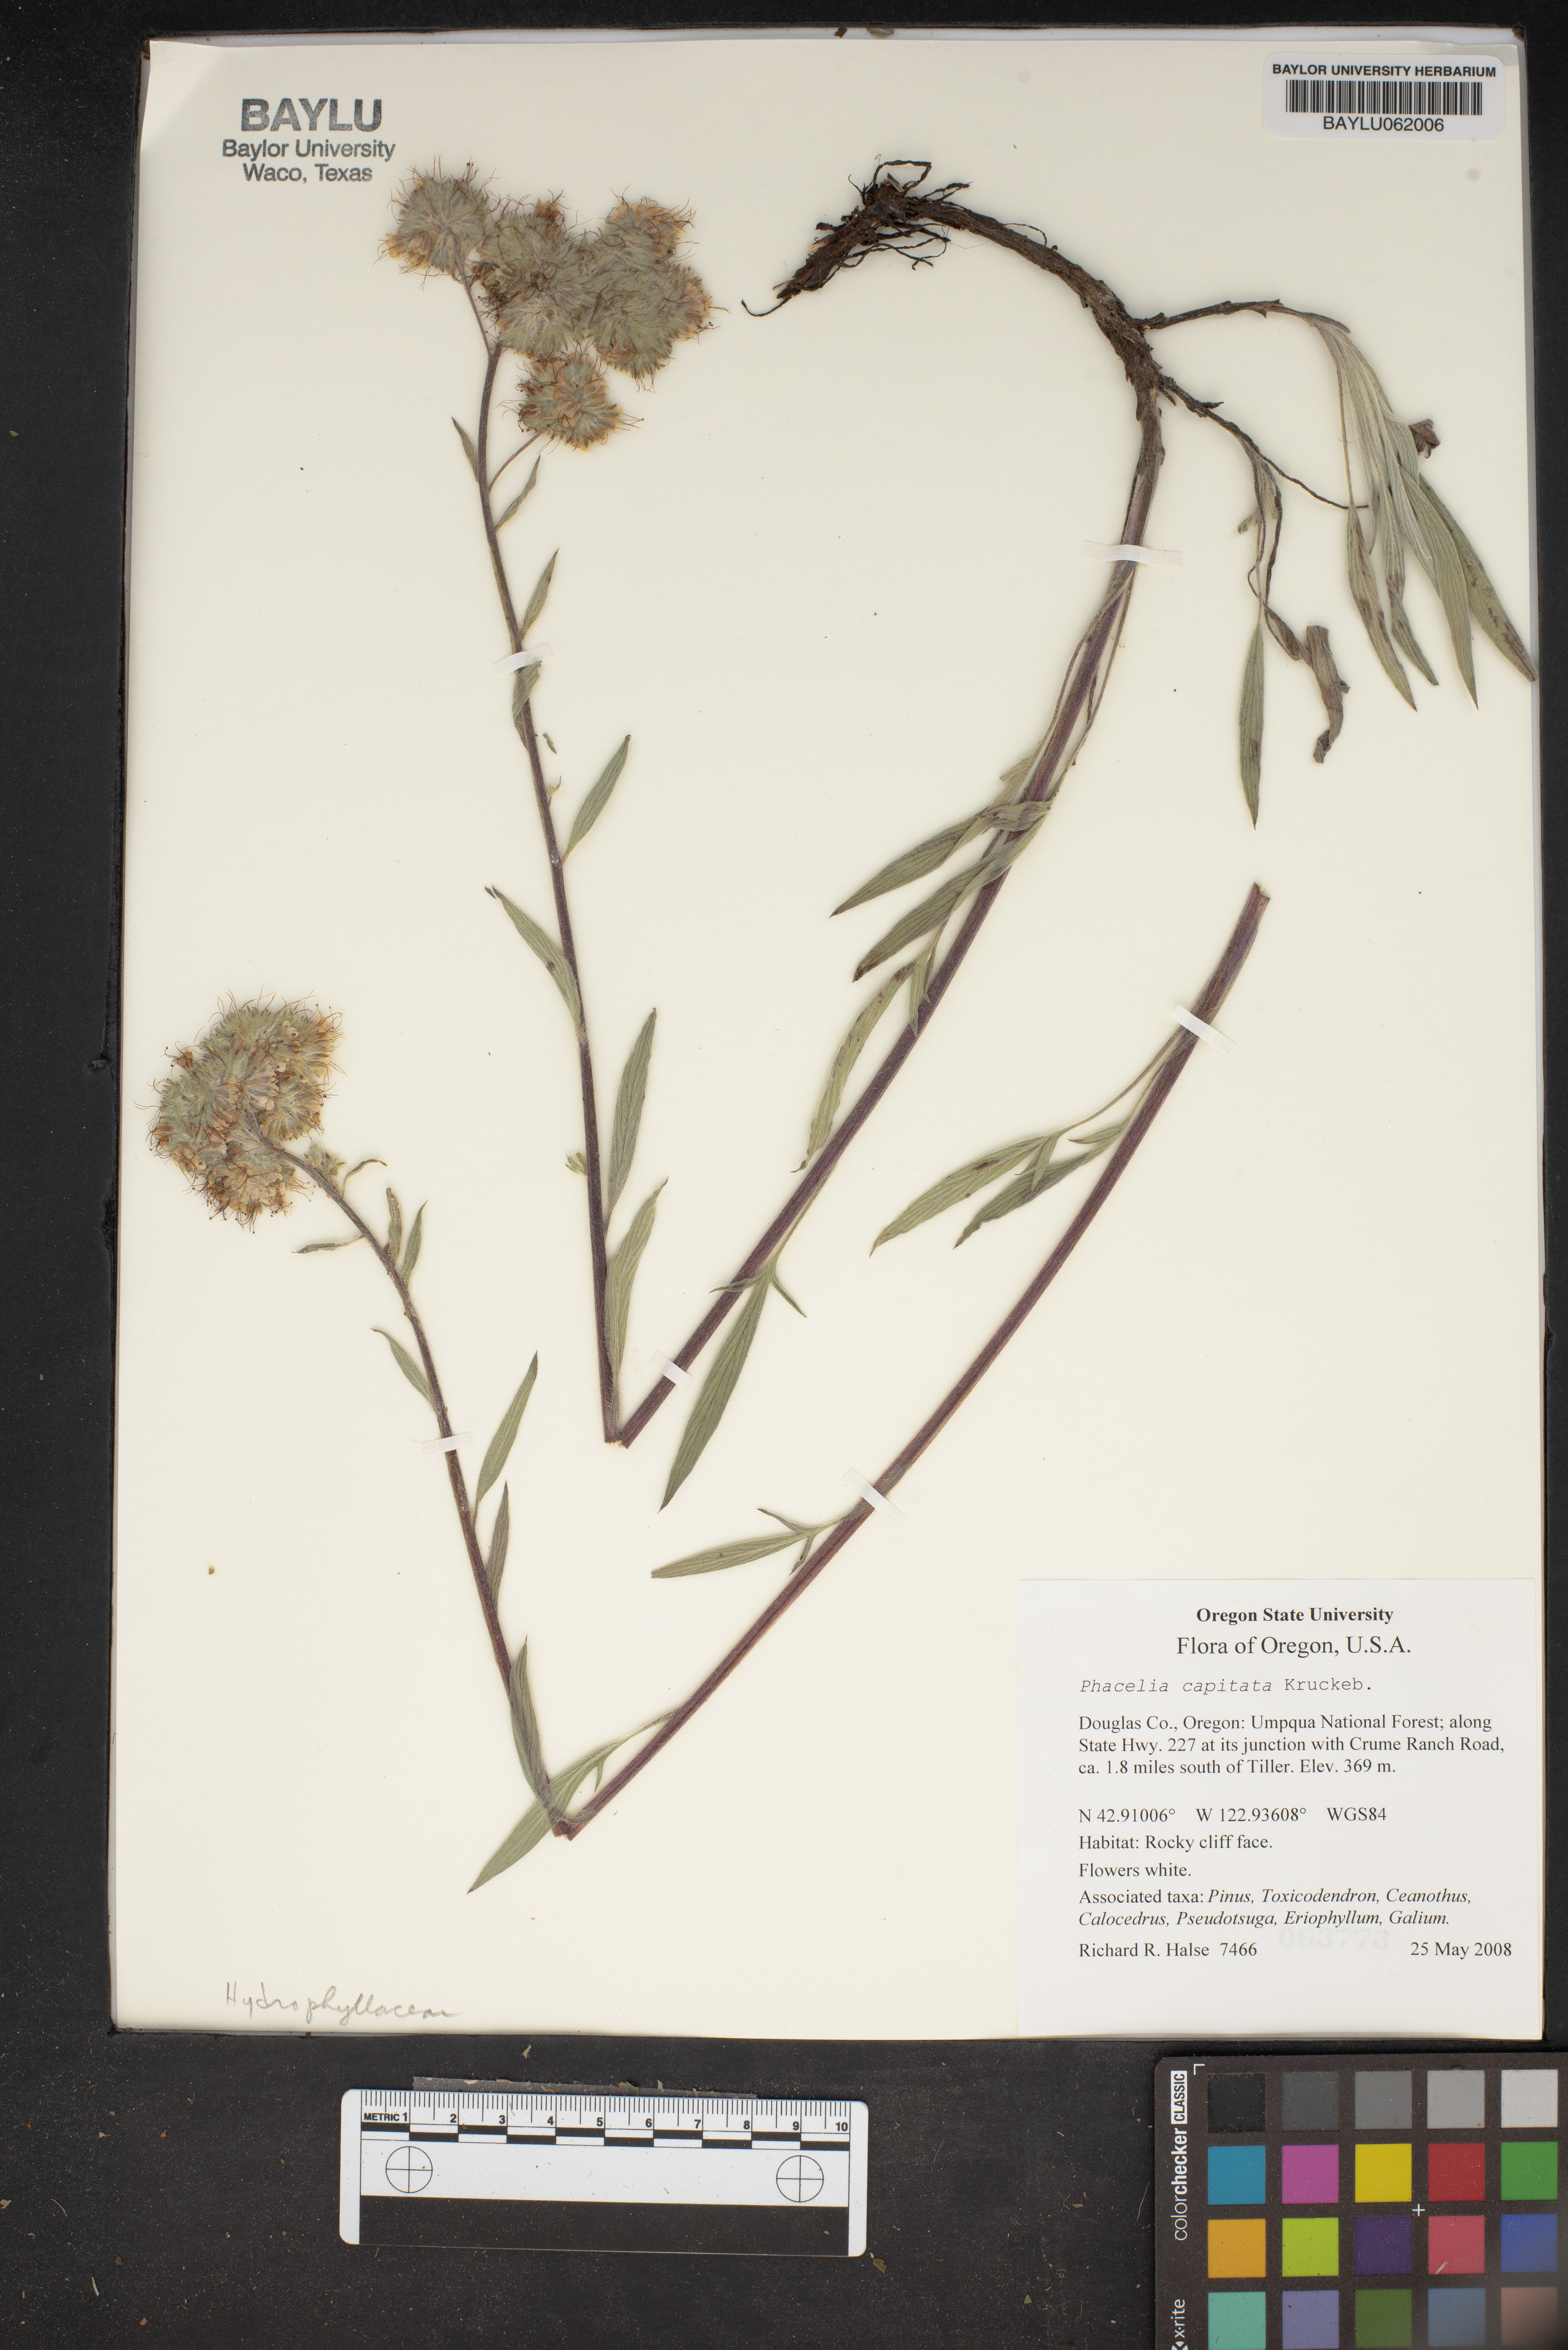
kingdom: Plantae
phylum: Tracheophyta
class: Magnoliopsida
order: Boraginales
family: Hydrophyllaceae
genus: Phacelia
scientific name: Phacelia capitata
